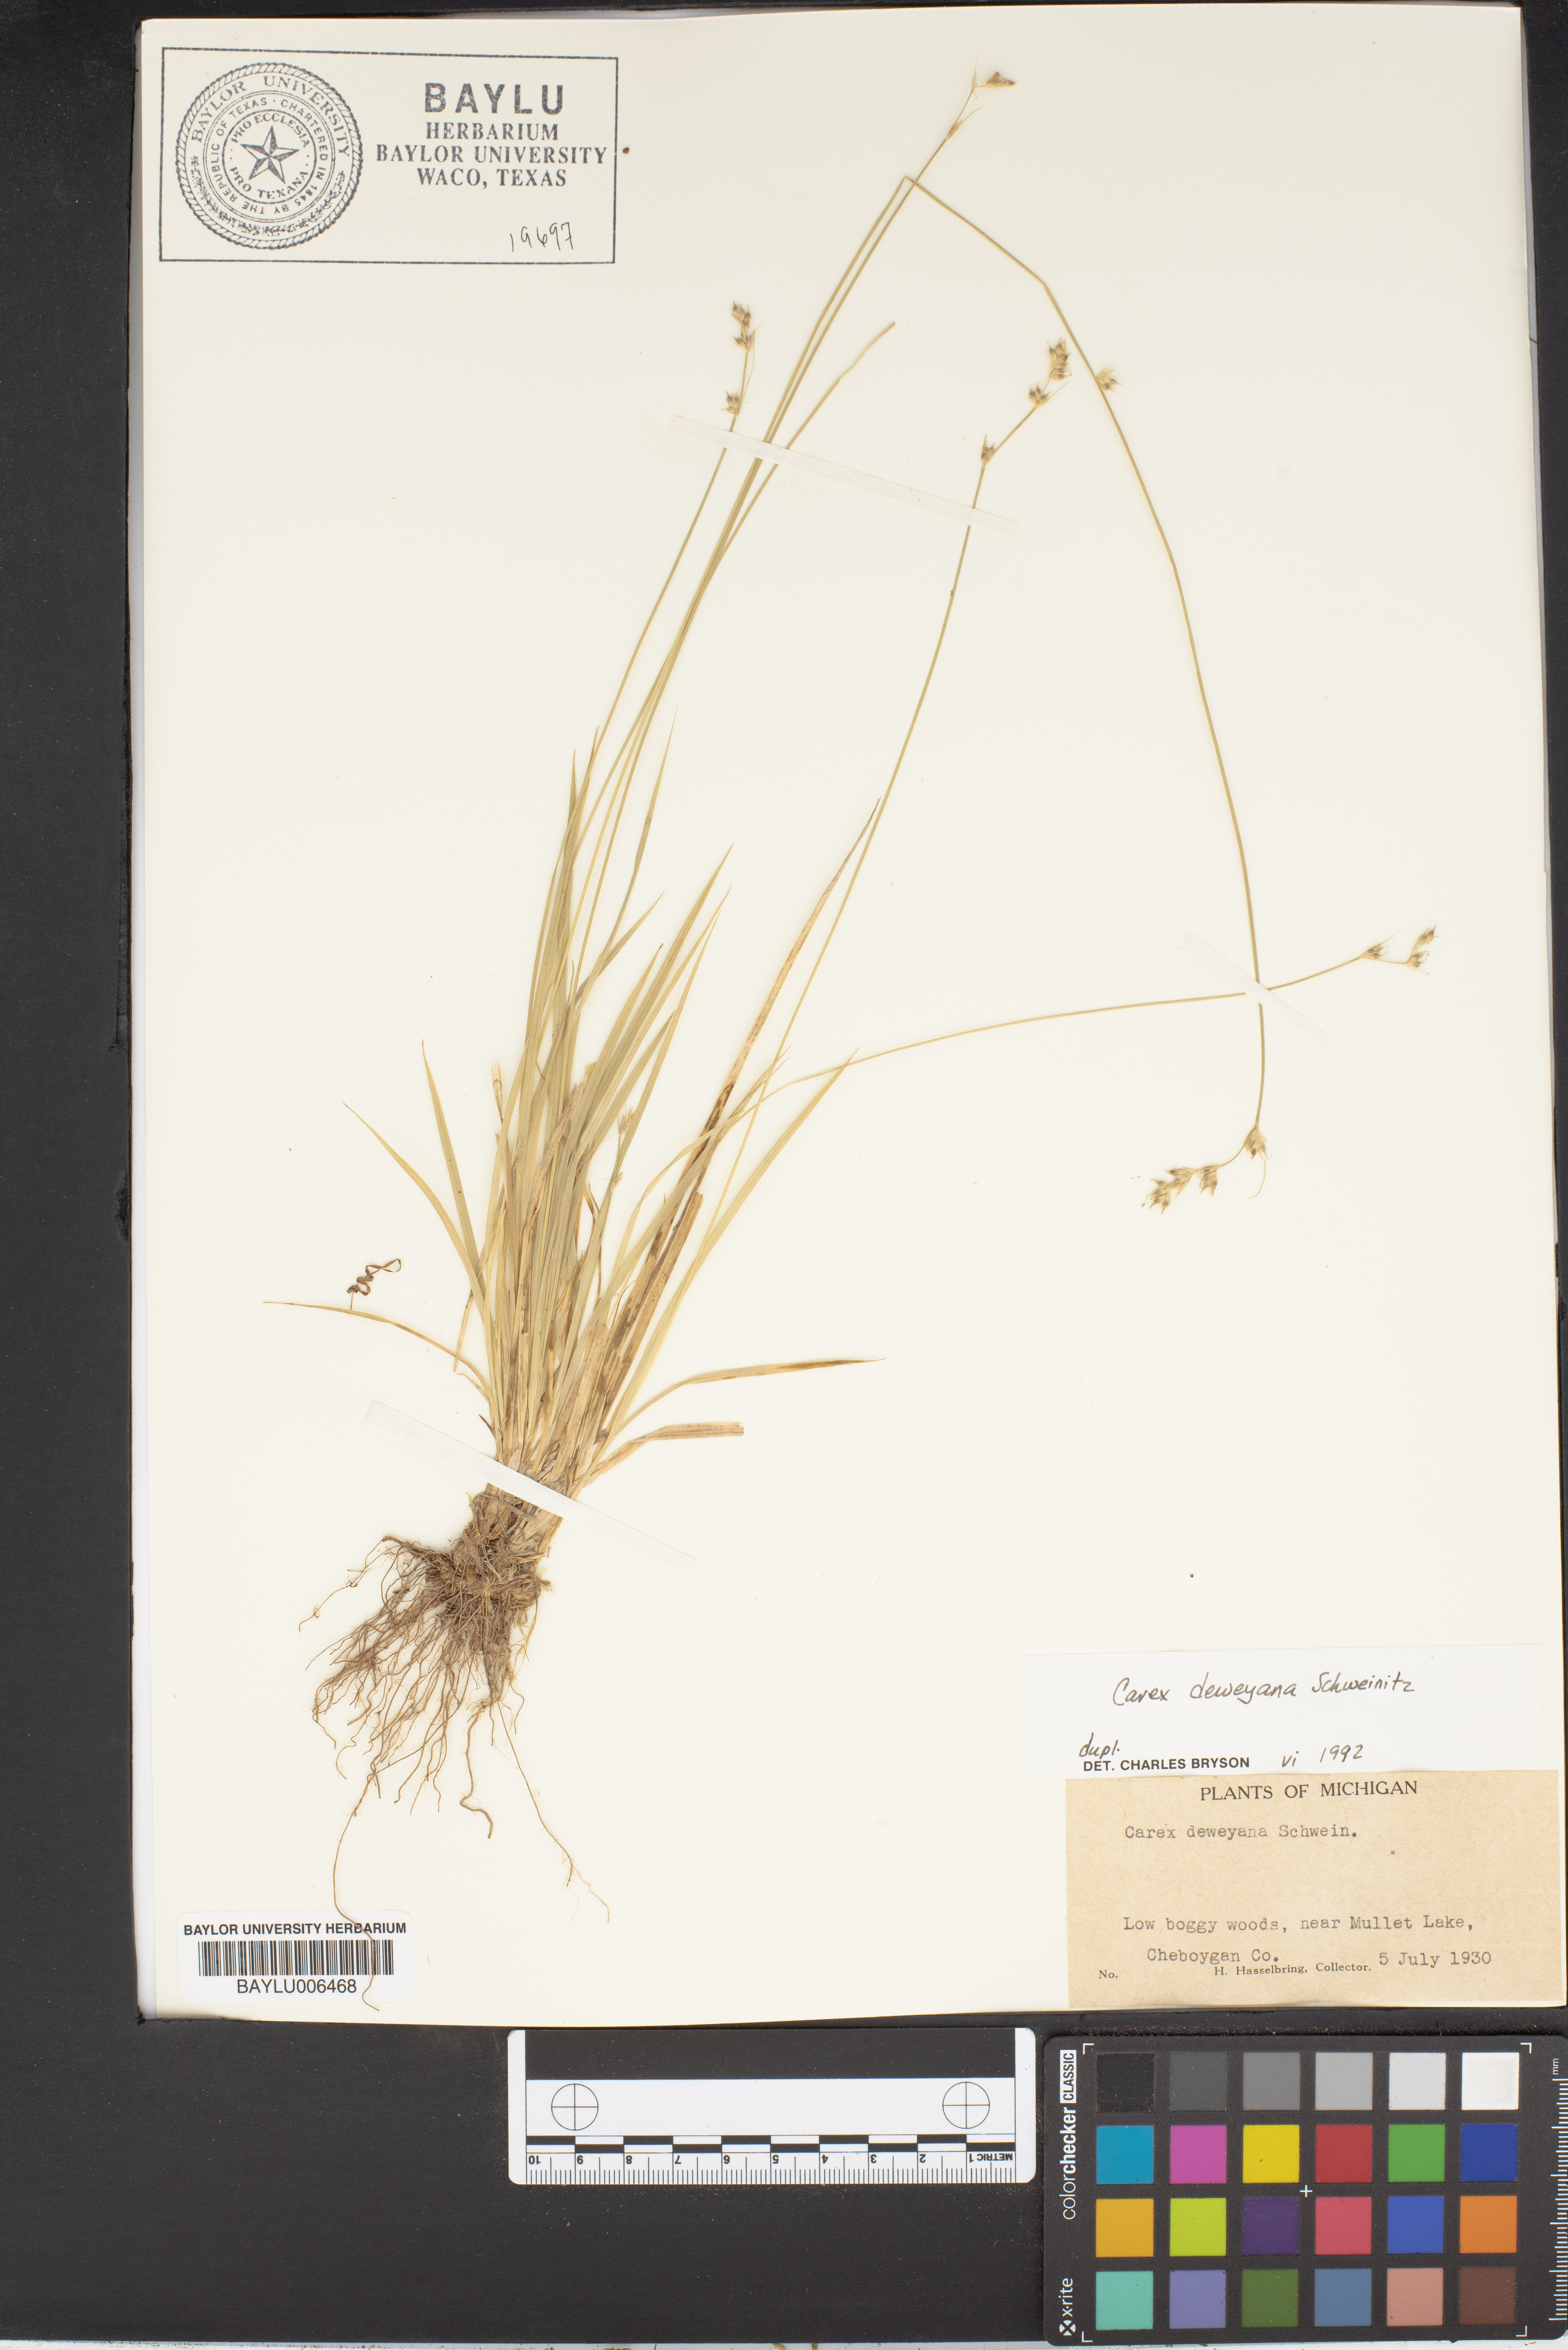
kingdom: Plantae
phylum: Tracheophyta
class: Liliopsida
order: Poales
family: Cyperaceae
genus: Carex
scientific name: Carex deweyana
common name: Dewey's sedge
